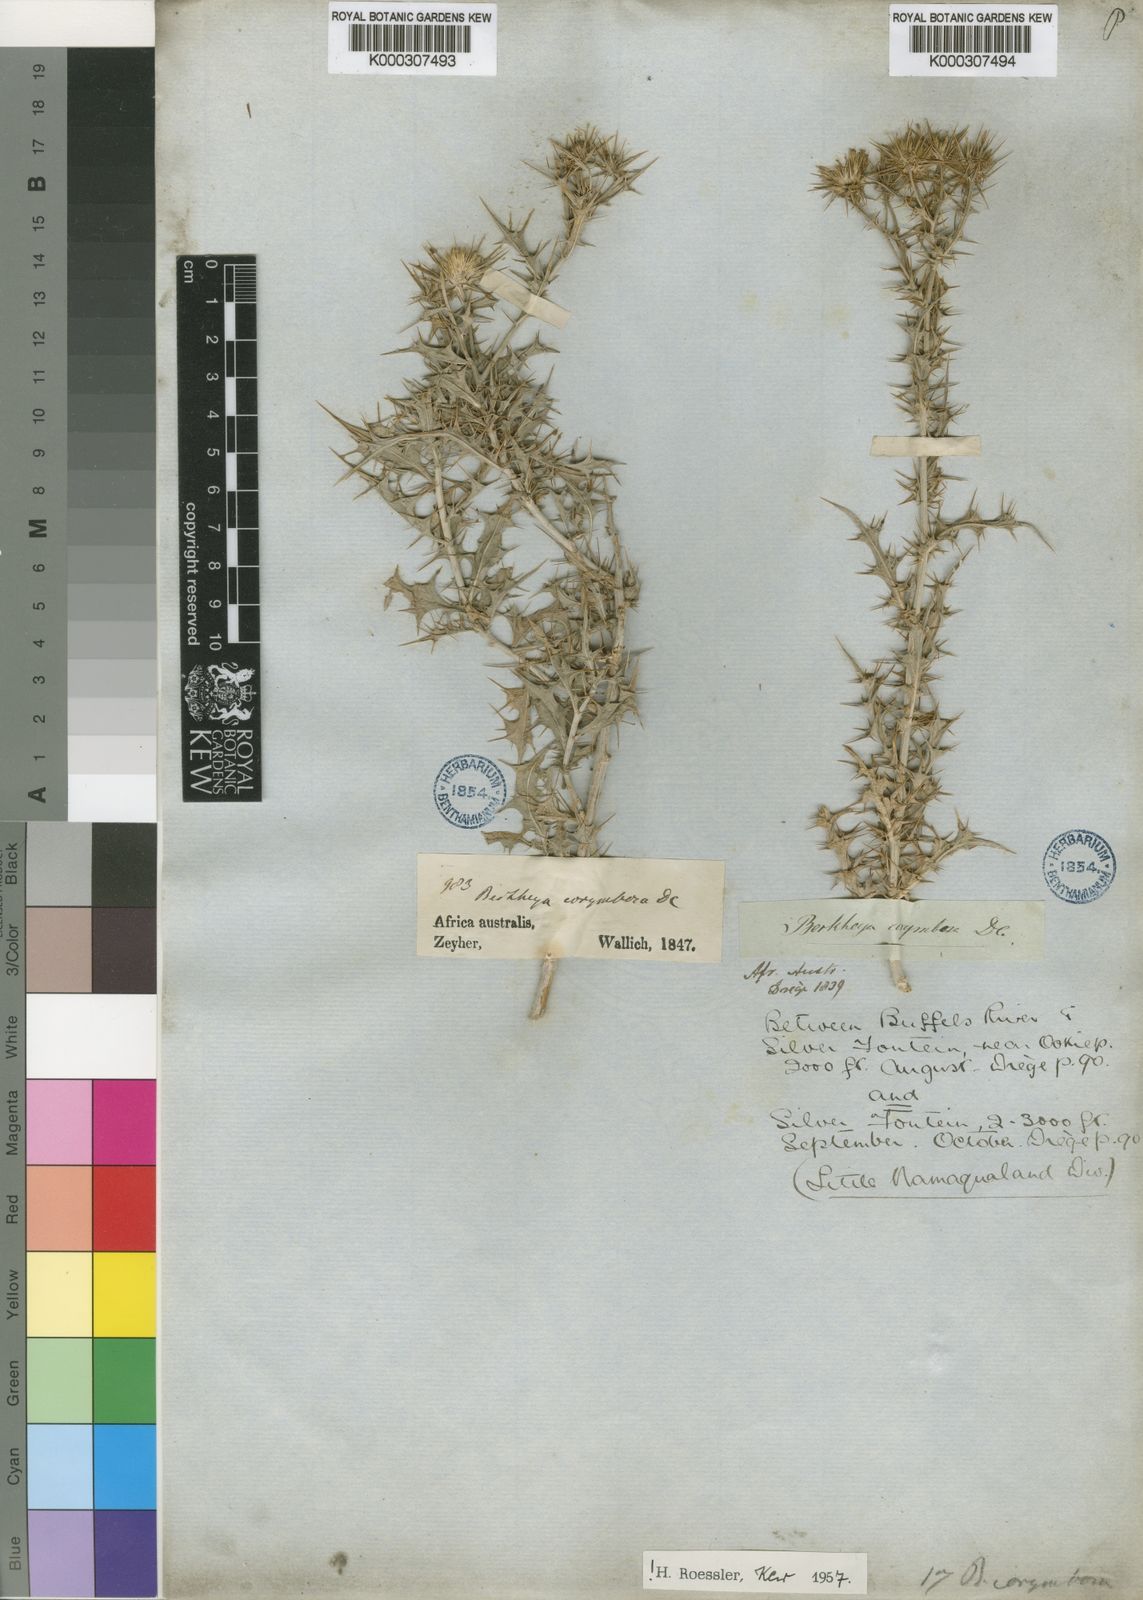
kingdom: Plantae
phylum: Tracheophyta
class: Magnoliopsida
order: Asterales
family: Asteraceae
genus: Berkheya
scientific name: Berkheya canescens
